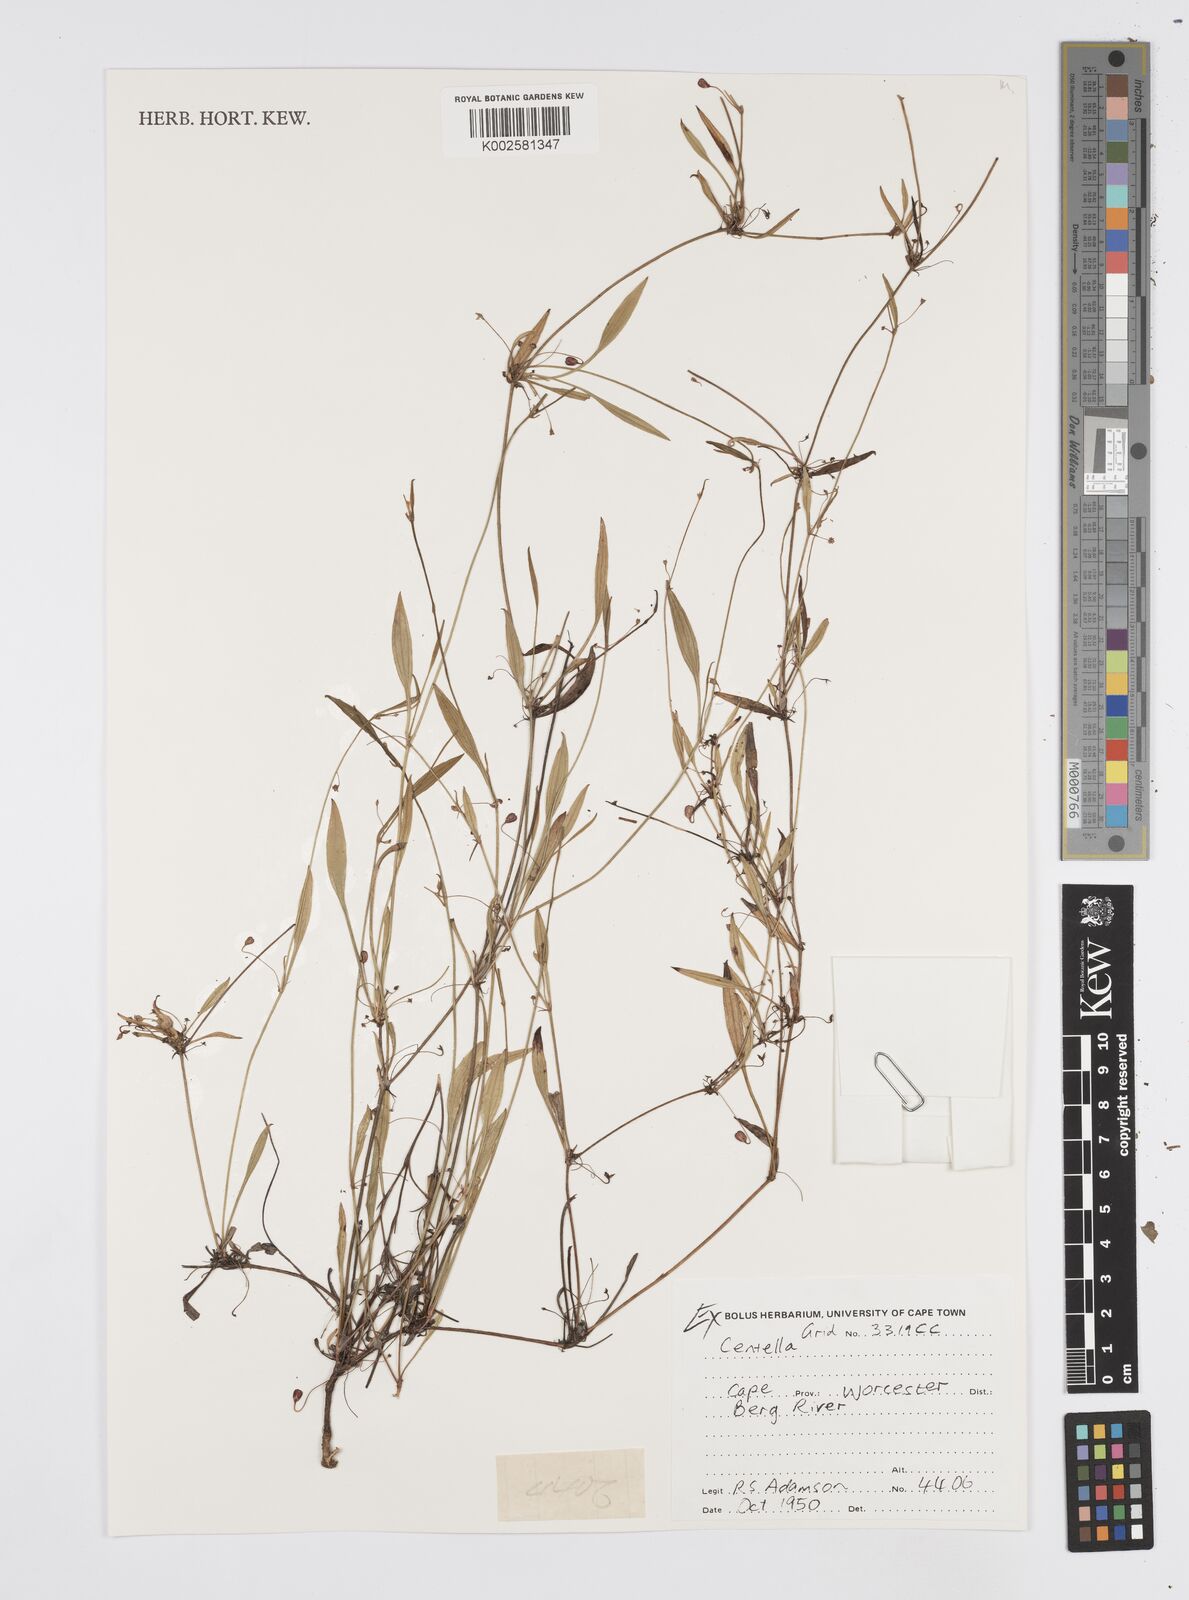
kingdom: Plantae
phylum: Tracheophyta
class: Magnoliopsida
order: Apiales
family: Apiaceae
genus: Centella
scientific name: Centella
